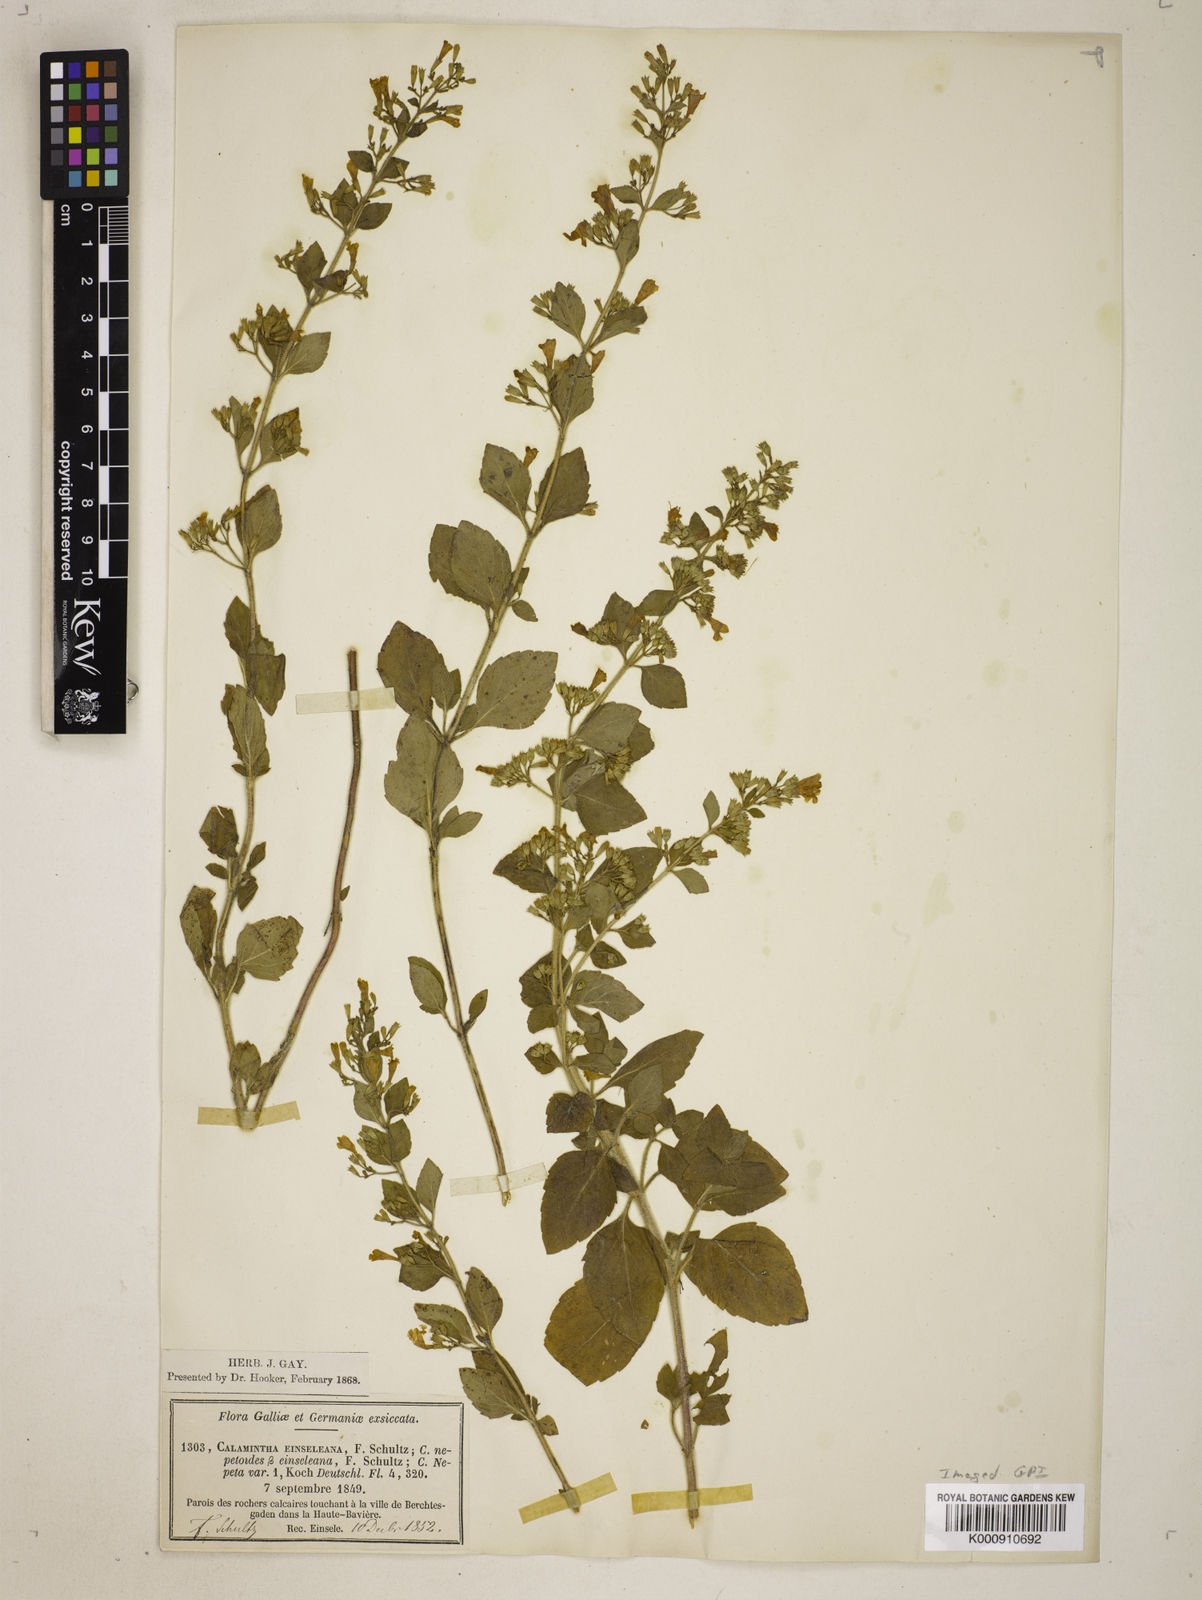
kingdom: Plantae
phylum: Tracheophyta
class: Magnoliopsida
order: Lamiales
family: Lamiaceae
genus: Clinopodium
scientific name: Clinopodium
